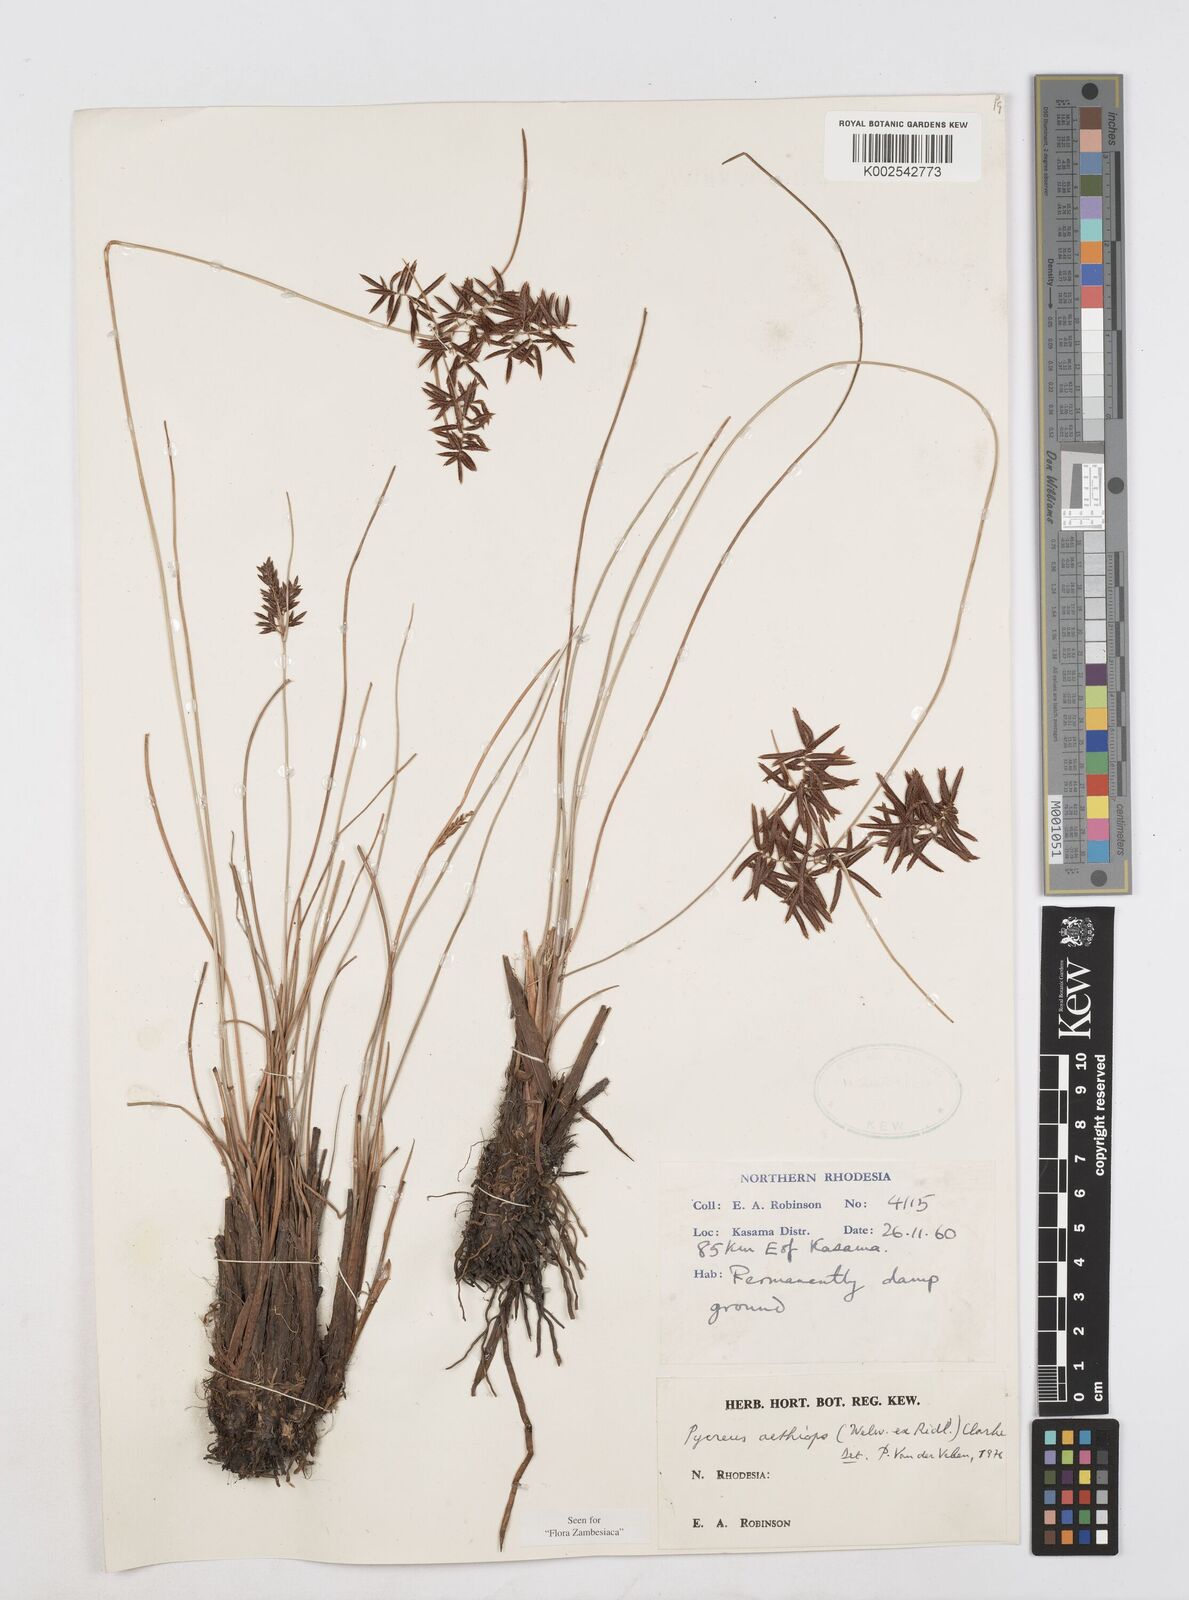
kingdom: Plantae
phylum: Tracheophyta
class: Liliopsida
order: Poales
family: Cyperaceae
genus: Cyperus
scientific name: Cyperus aethiops
